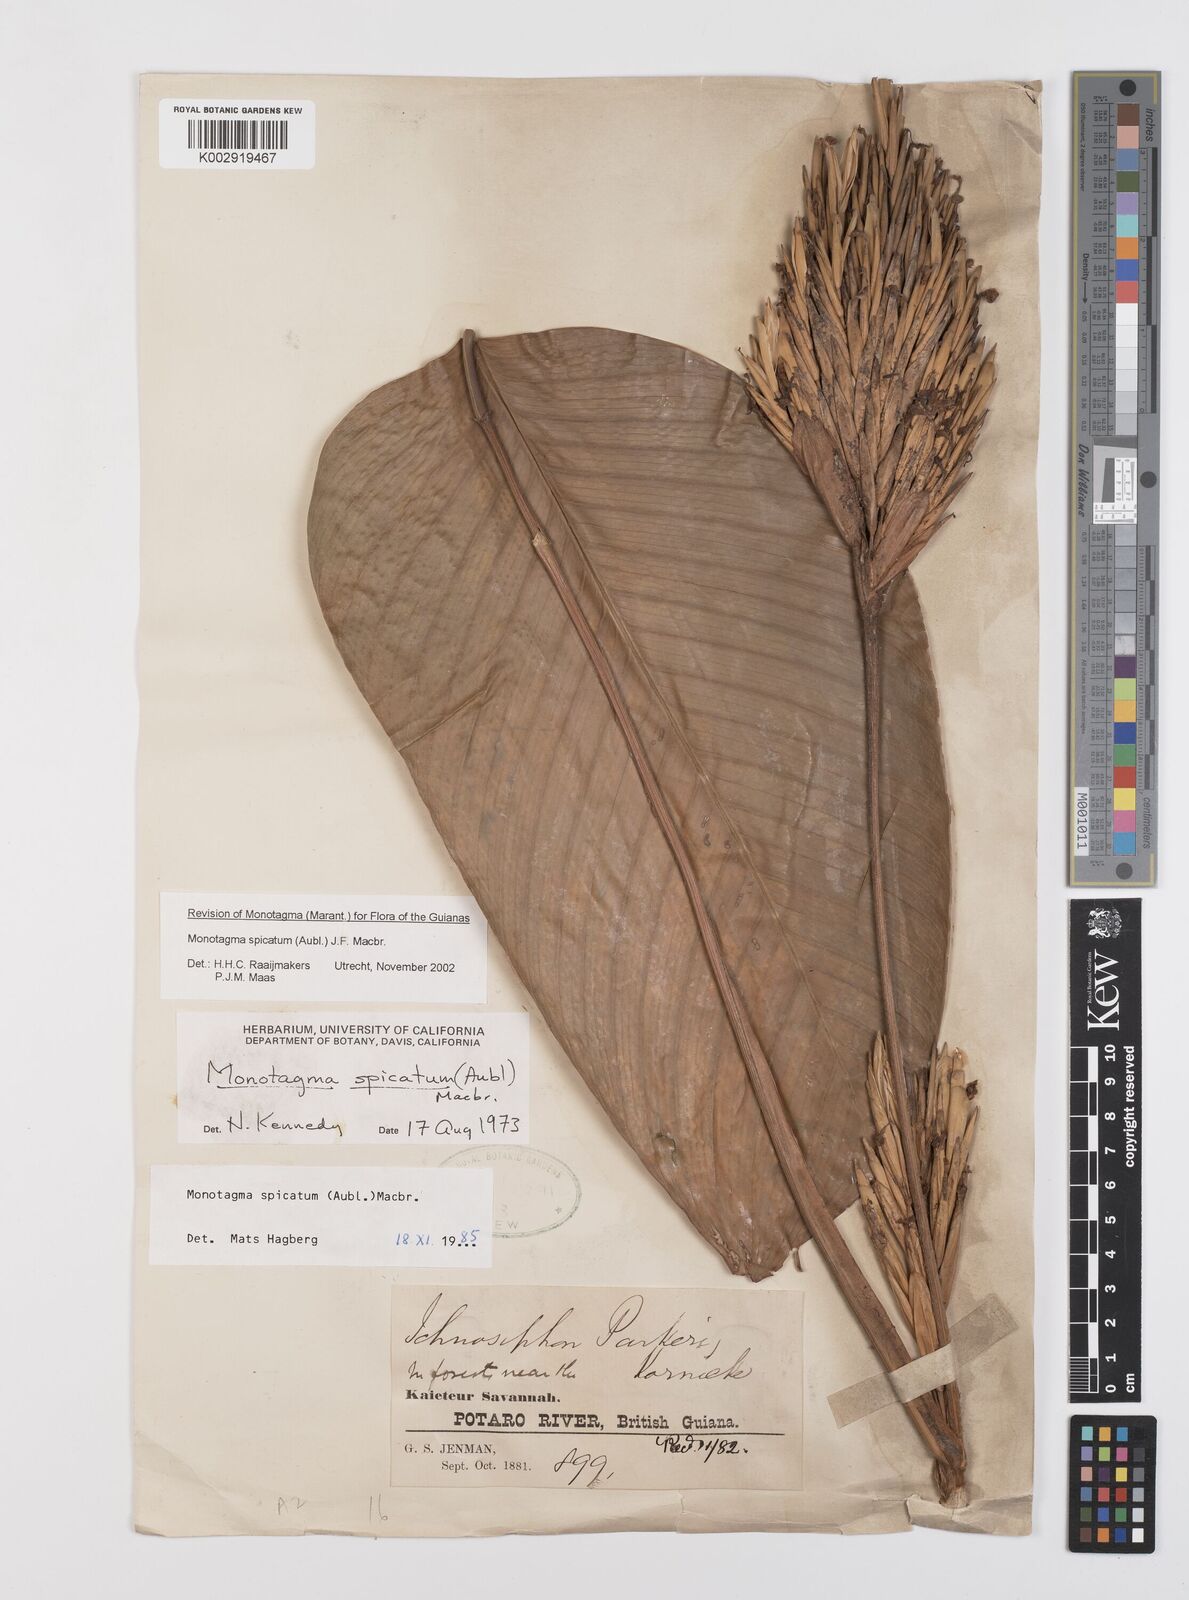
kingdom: Plantae
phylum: Tracheophyta
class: Liliopsida
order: Zingiberales
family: Marantaceae
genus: Monotagma
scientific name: Monotagma spicatum
